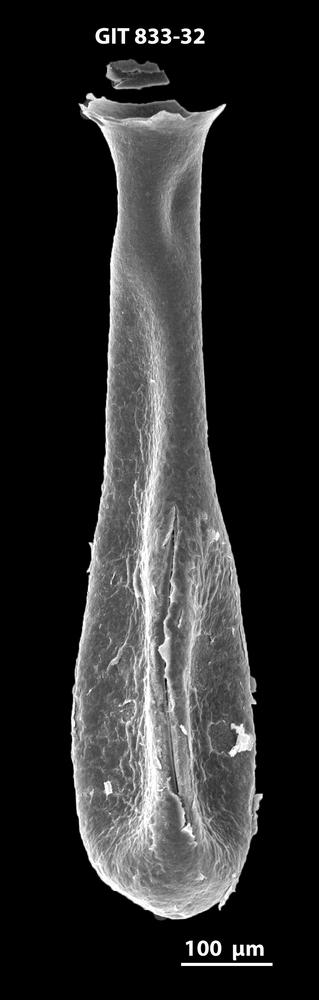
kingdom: Animalia
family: Lagenochitinidae
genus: Lagenochitina
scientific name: Lagenochitina megaesthonica
